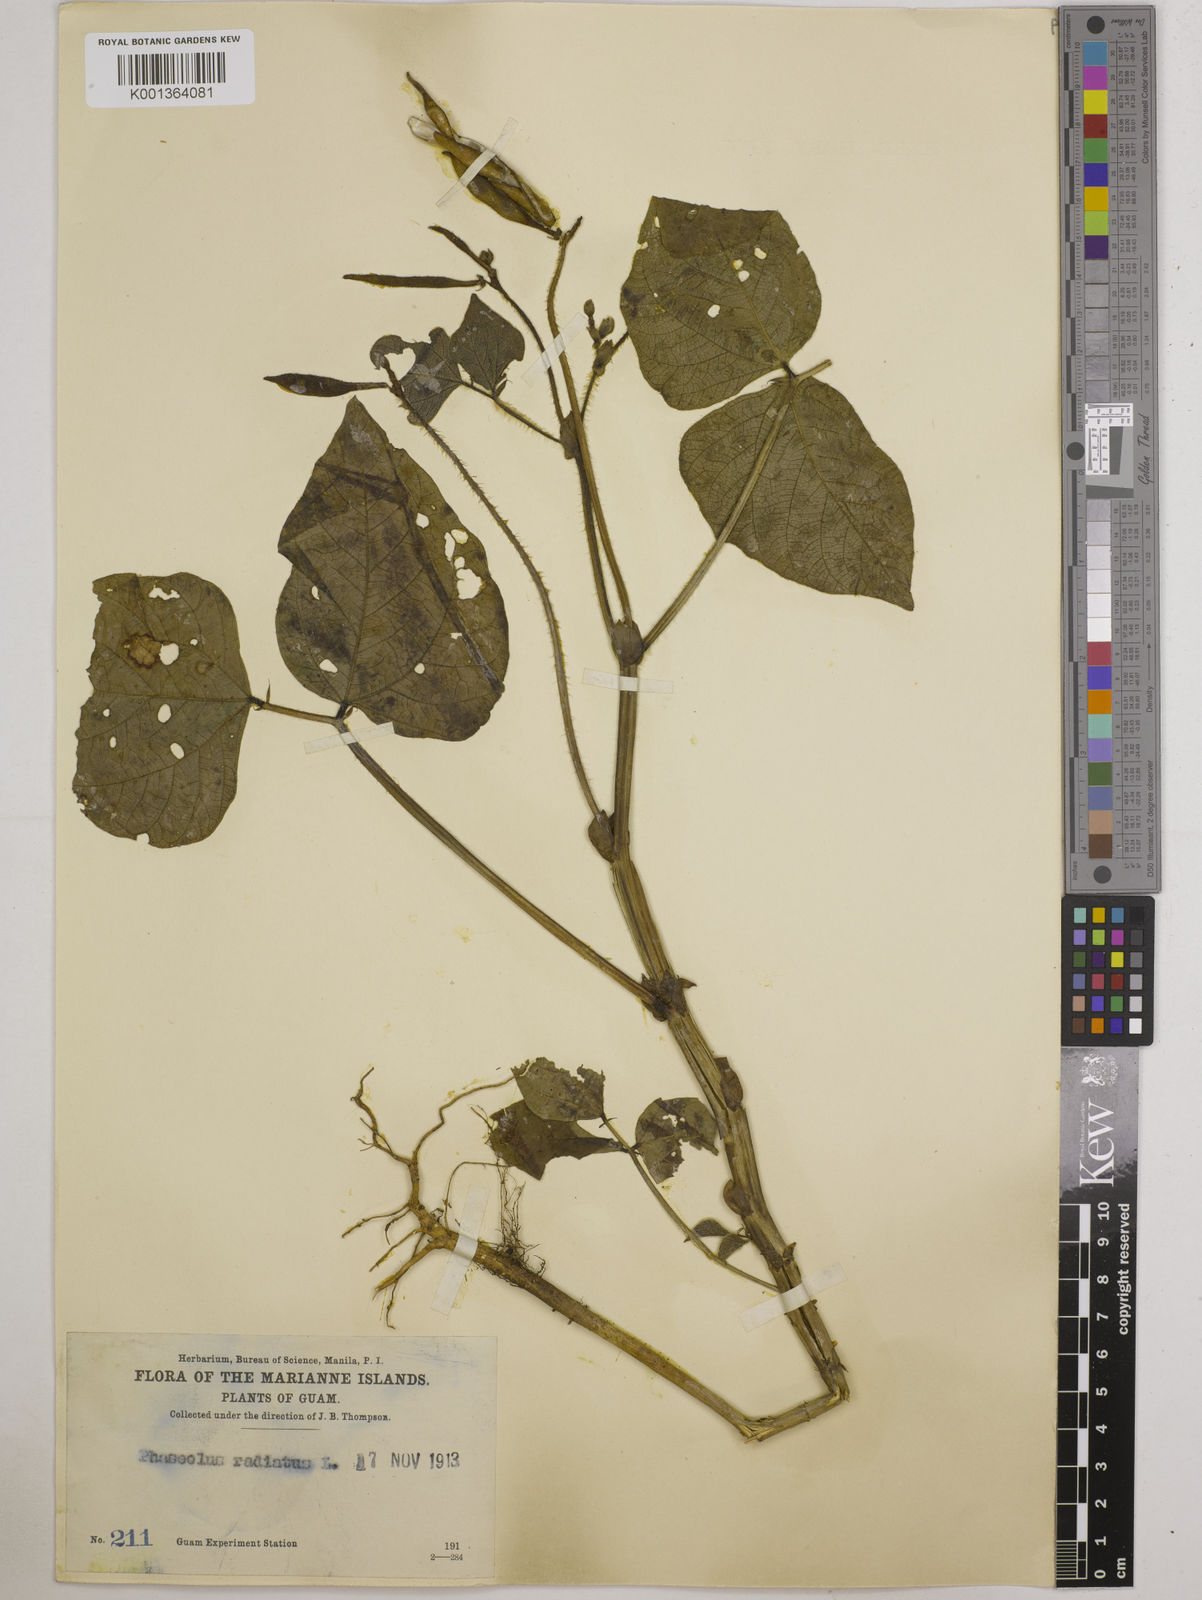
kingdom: Plantae
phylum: Tracheophyta
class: Magnoliopsida
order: Fabales
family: Fabaceae
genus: Vigna
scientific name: Vigna radiata
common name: Mung-bean
